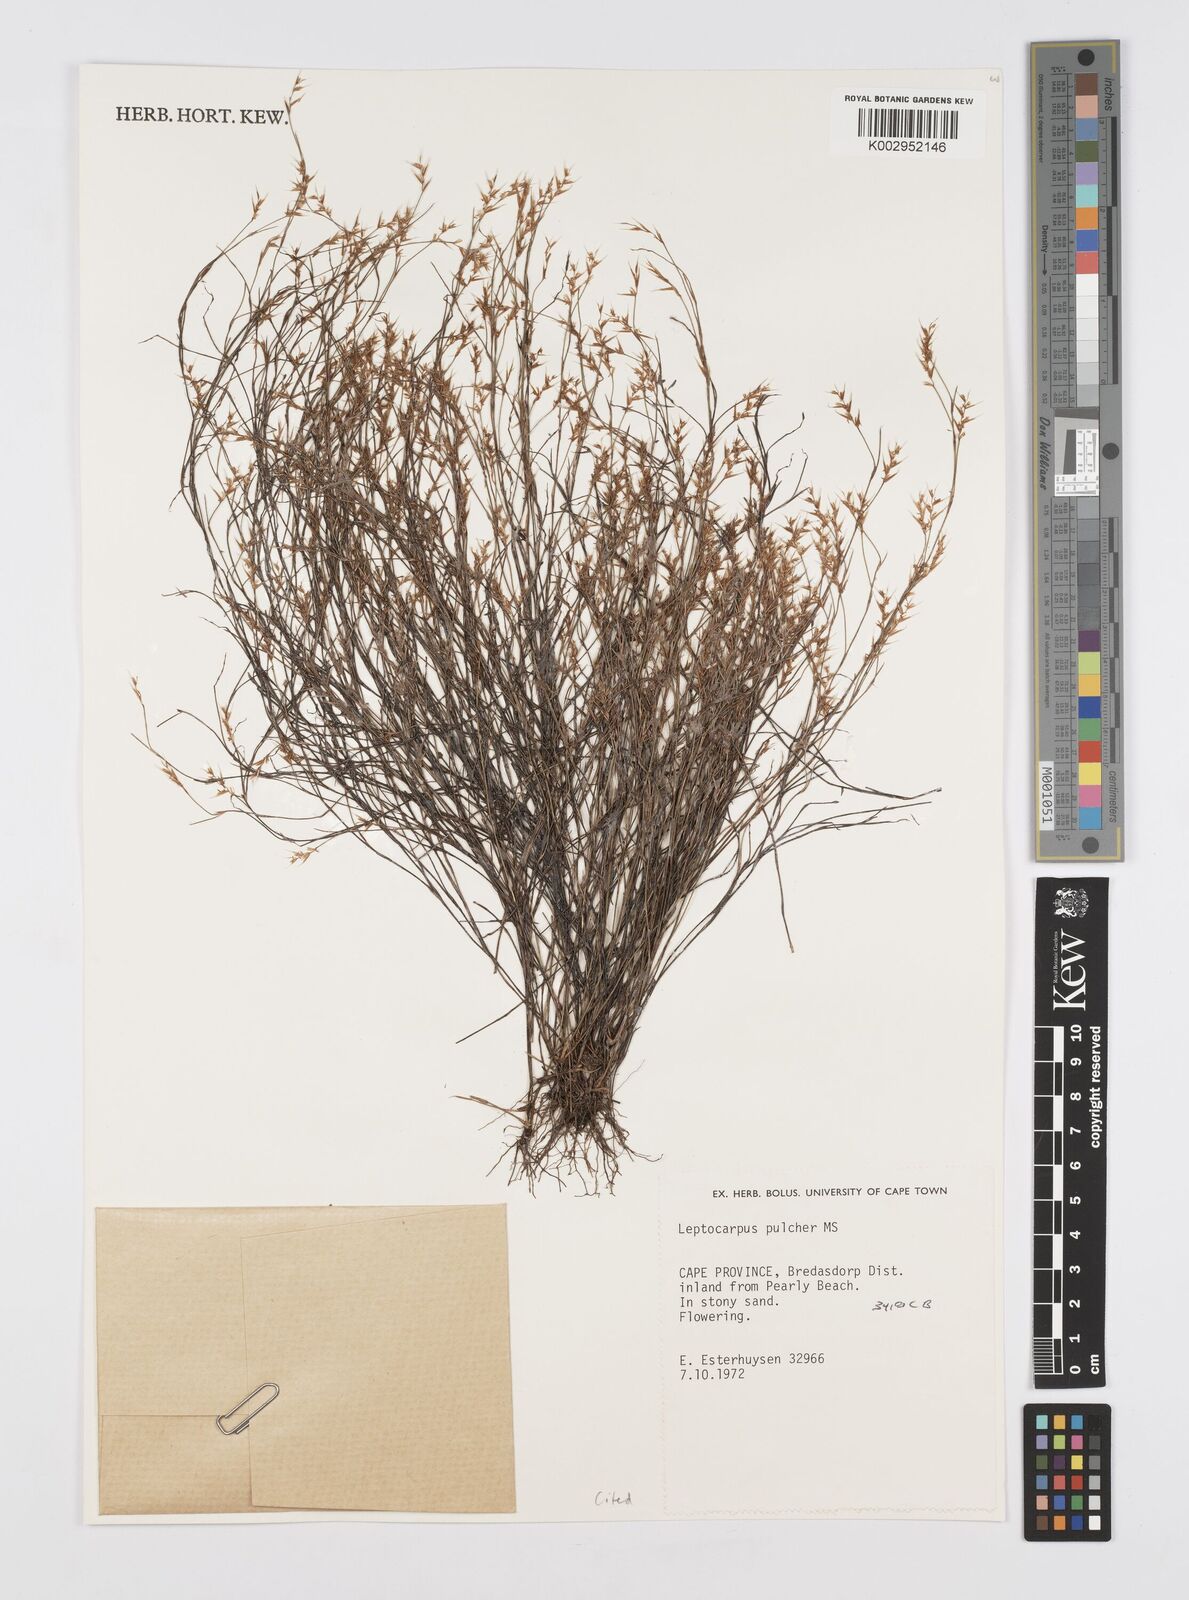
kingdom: Plantae
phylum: Tracheophyta
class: Liliopsida
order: Poales
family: Restionaceae
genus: Restio
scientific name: Restio pulcher
